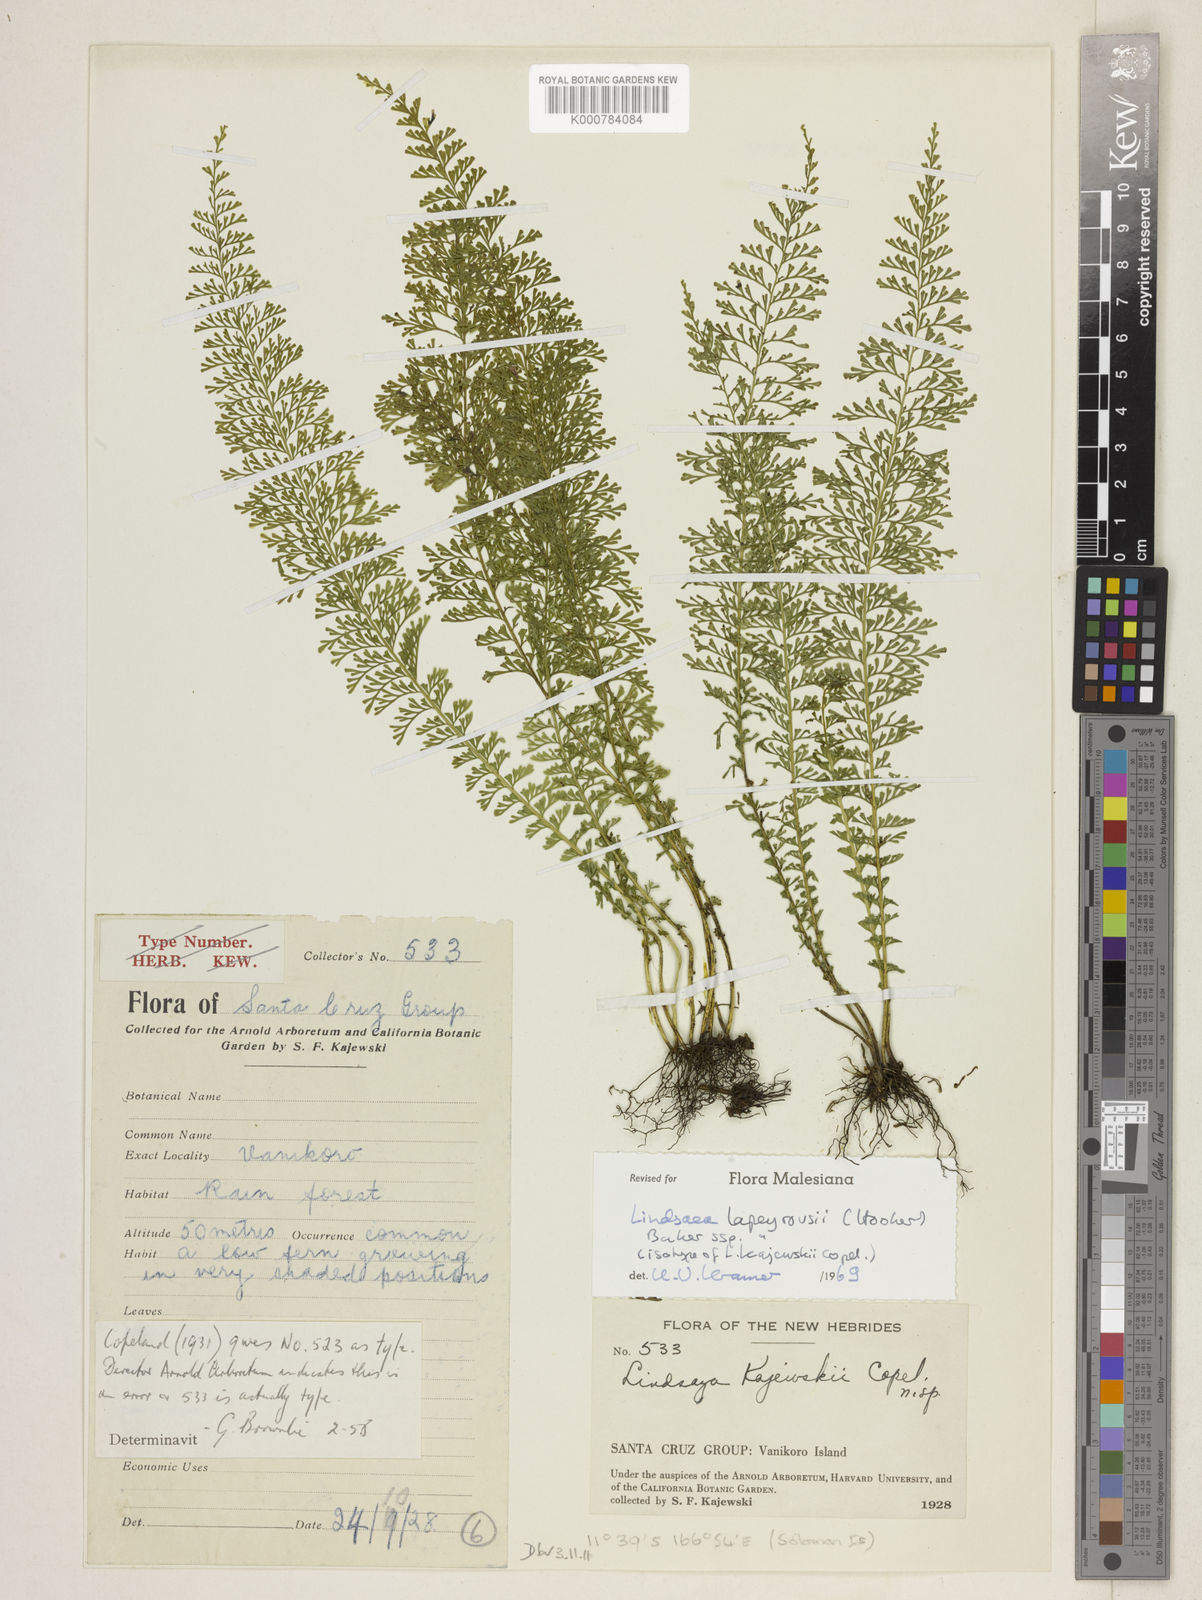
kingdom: Plantae
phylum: Tracheophyta
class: Polypodiopsida
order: Polypodiales
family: Lindsaeaceae
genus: Lindsaea
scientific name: Lindsaea lapeyrousei
